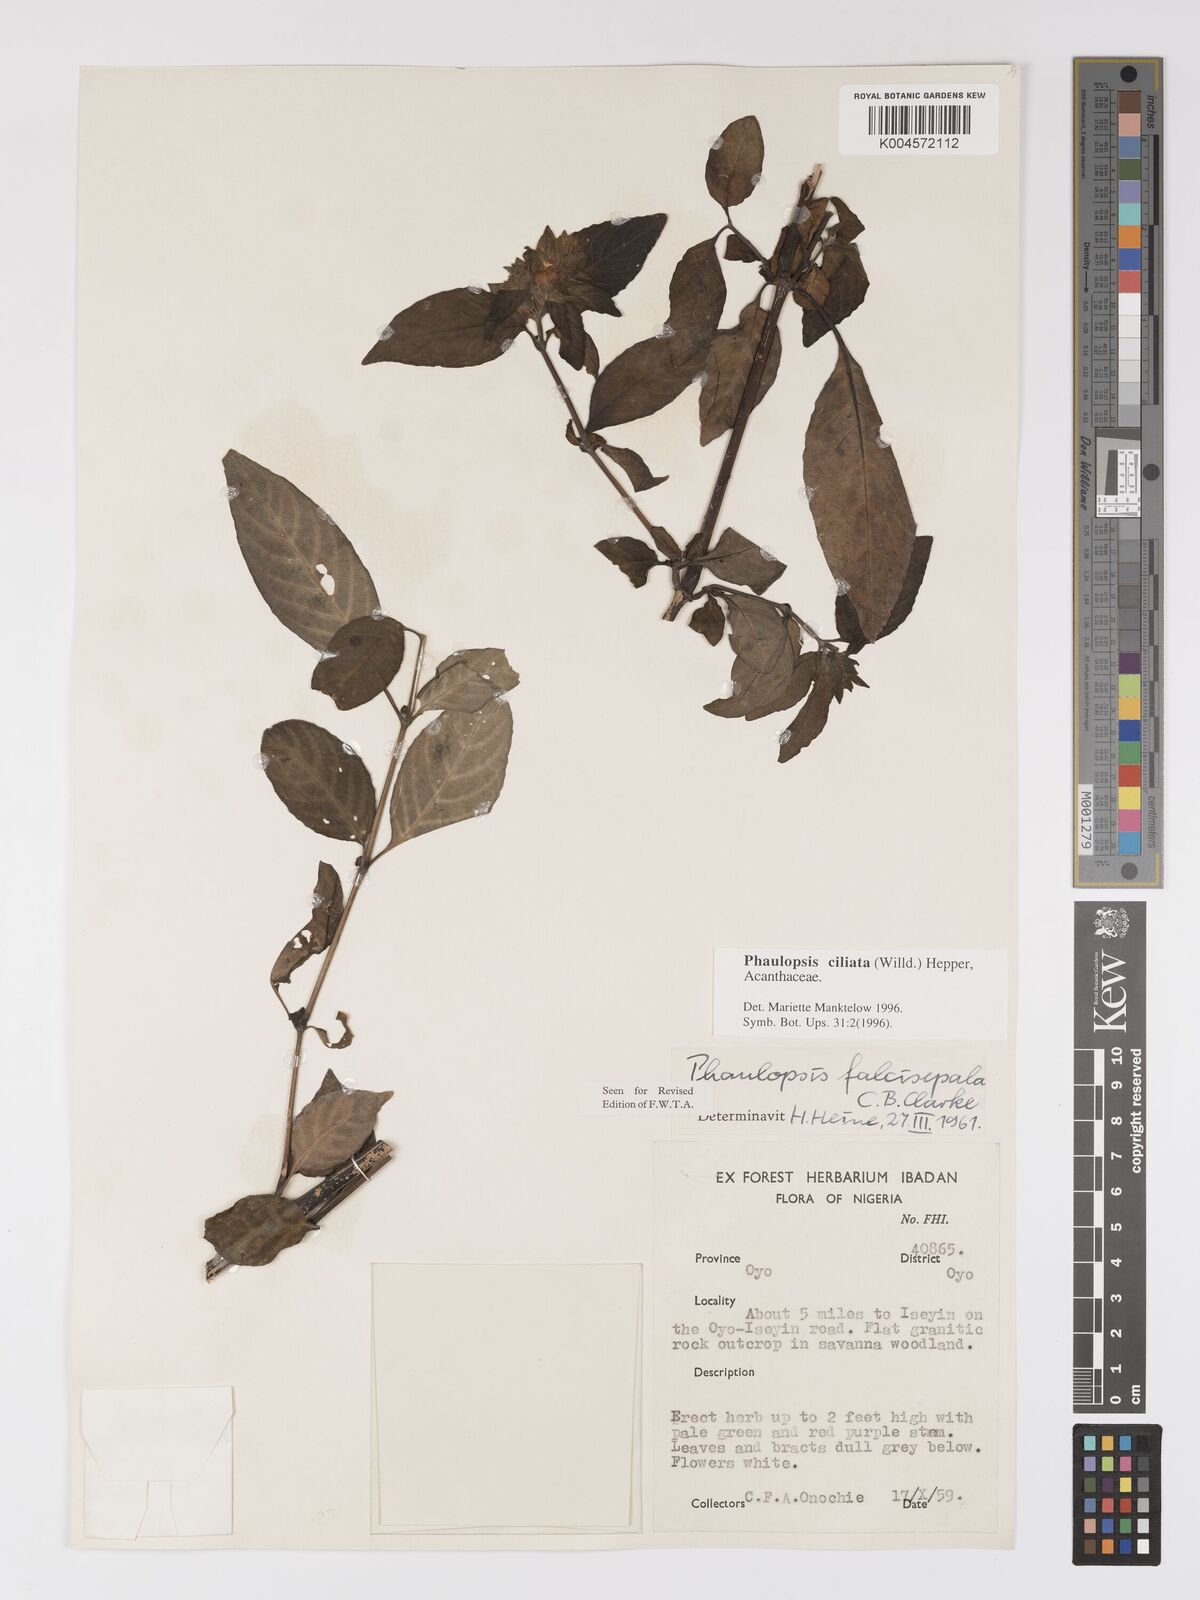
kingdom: Plantae
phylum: Tracheophyta
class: Magnoliopsida
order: Lamiales
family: Acanthaceae
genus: Phaulopsis
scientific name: Phaulopsis ciliata
